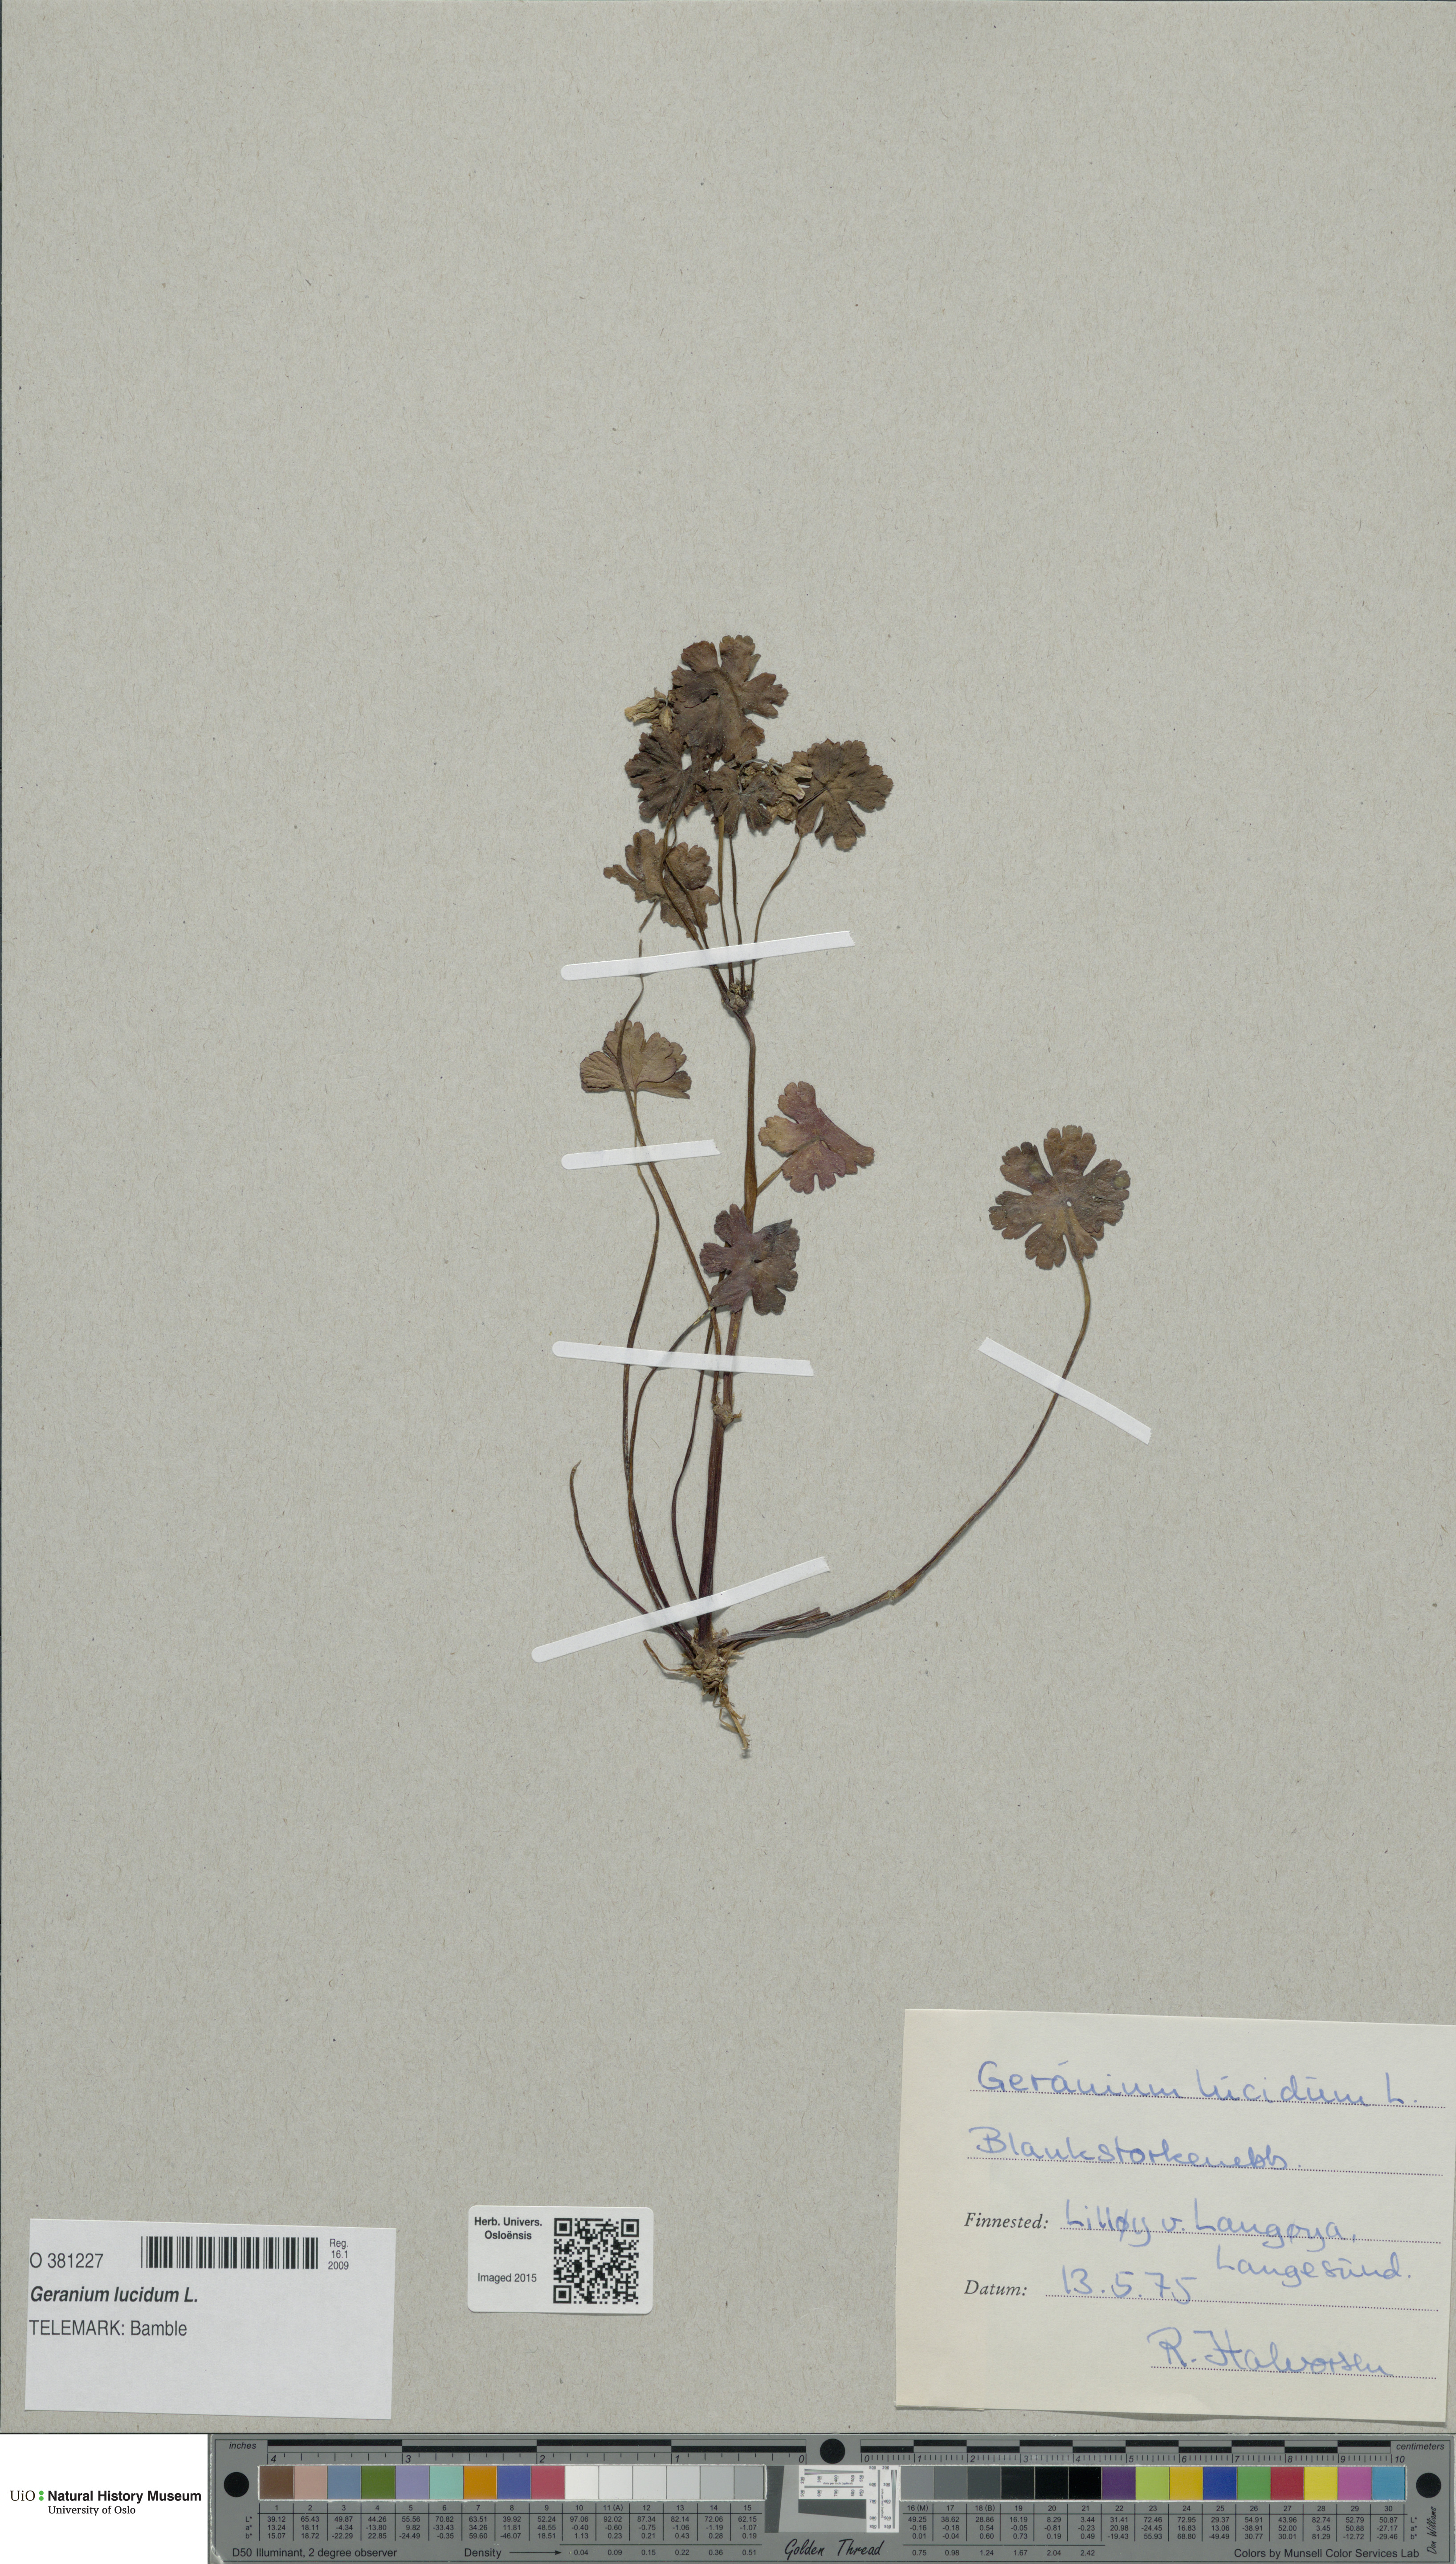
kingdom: Plantae
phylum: Tracheophyta
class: Magnoliopsida
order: Geraniales
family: Geraniaceae
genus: Geranium
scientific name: Geranium lucidum
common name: Shining crane's-bill
